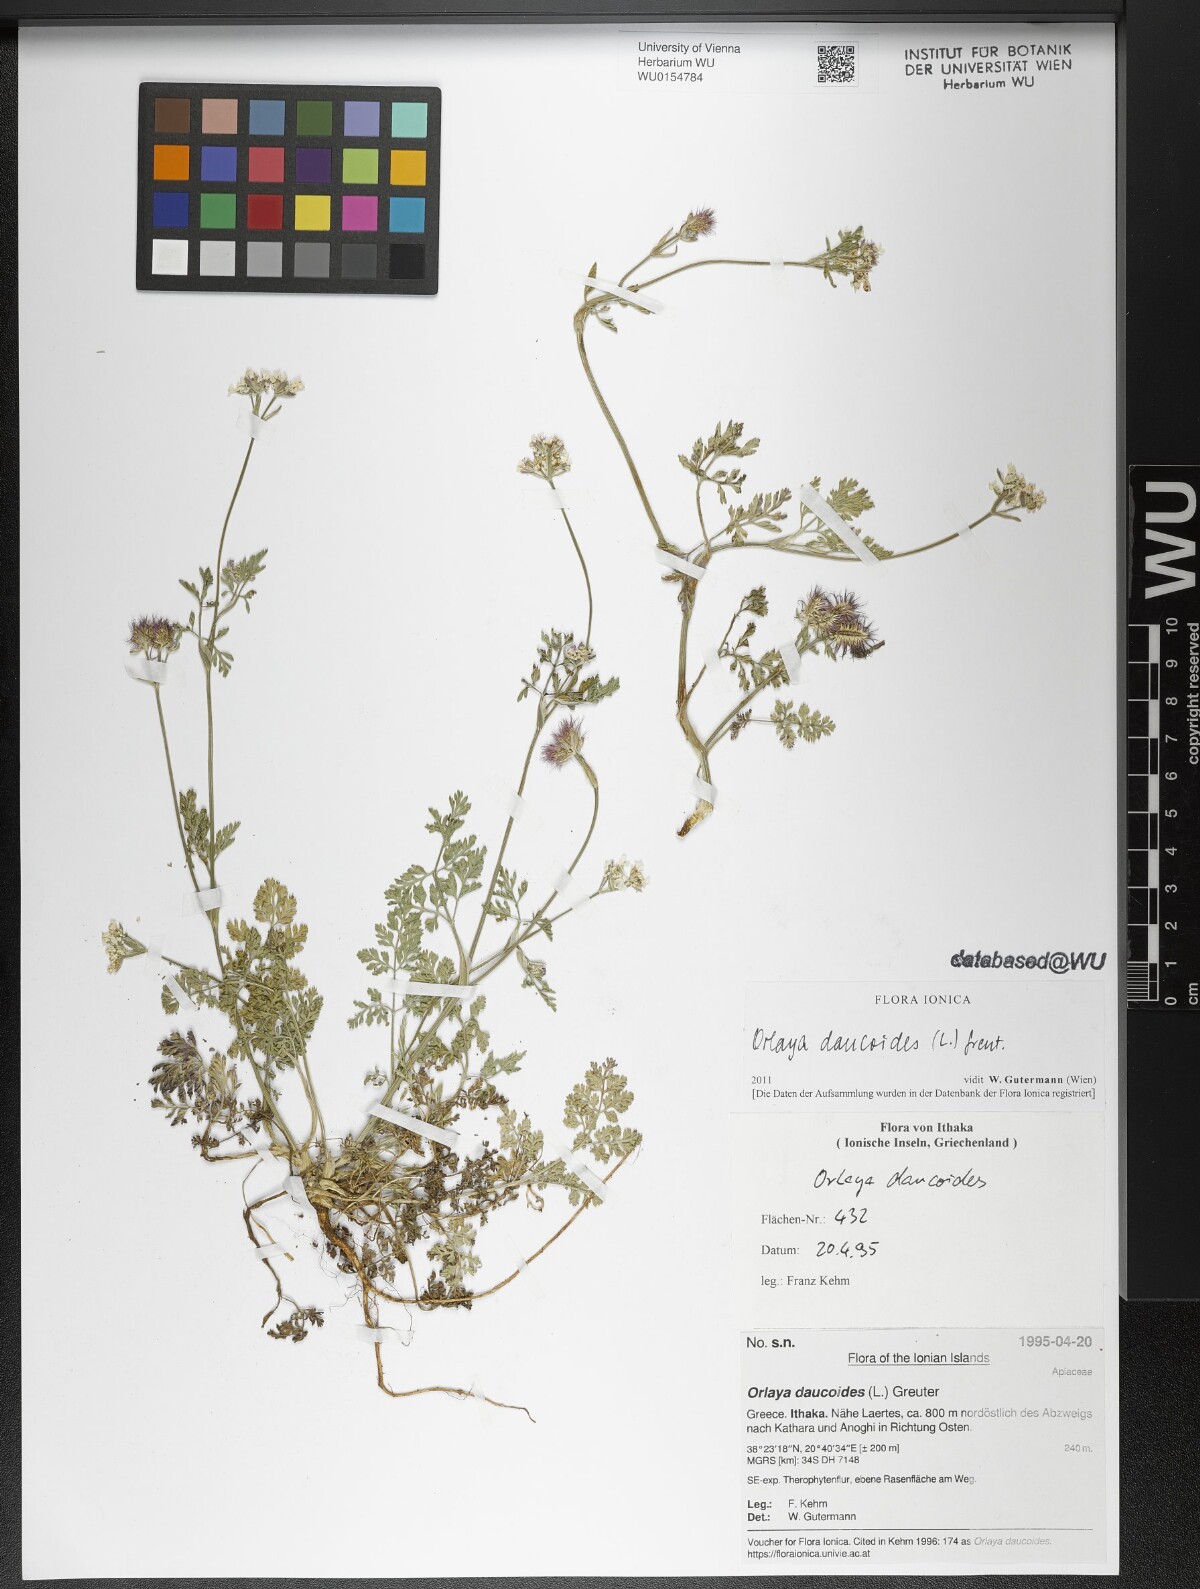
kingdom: Plantae
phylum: Tracheophyta
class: Magnoliopsida
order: Apiales
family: Apiaceae
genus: Orlaya
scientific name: Orlaya daucoides
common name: Flat-fruit orlaya
